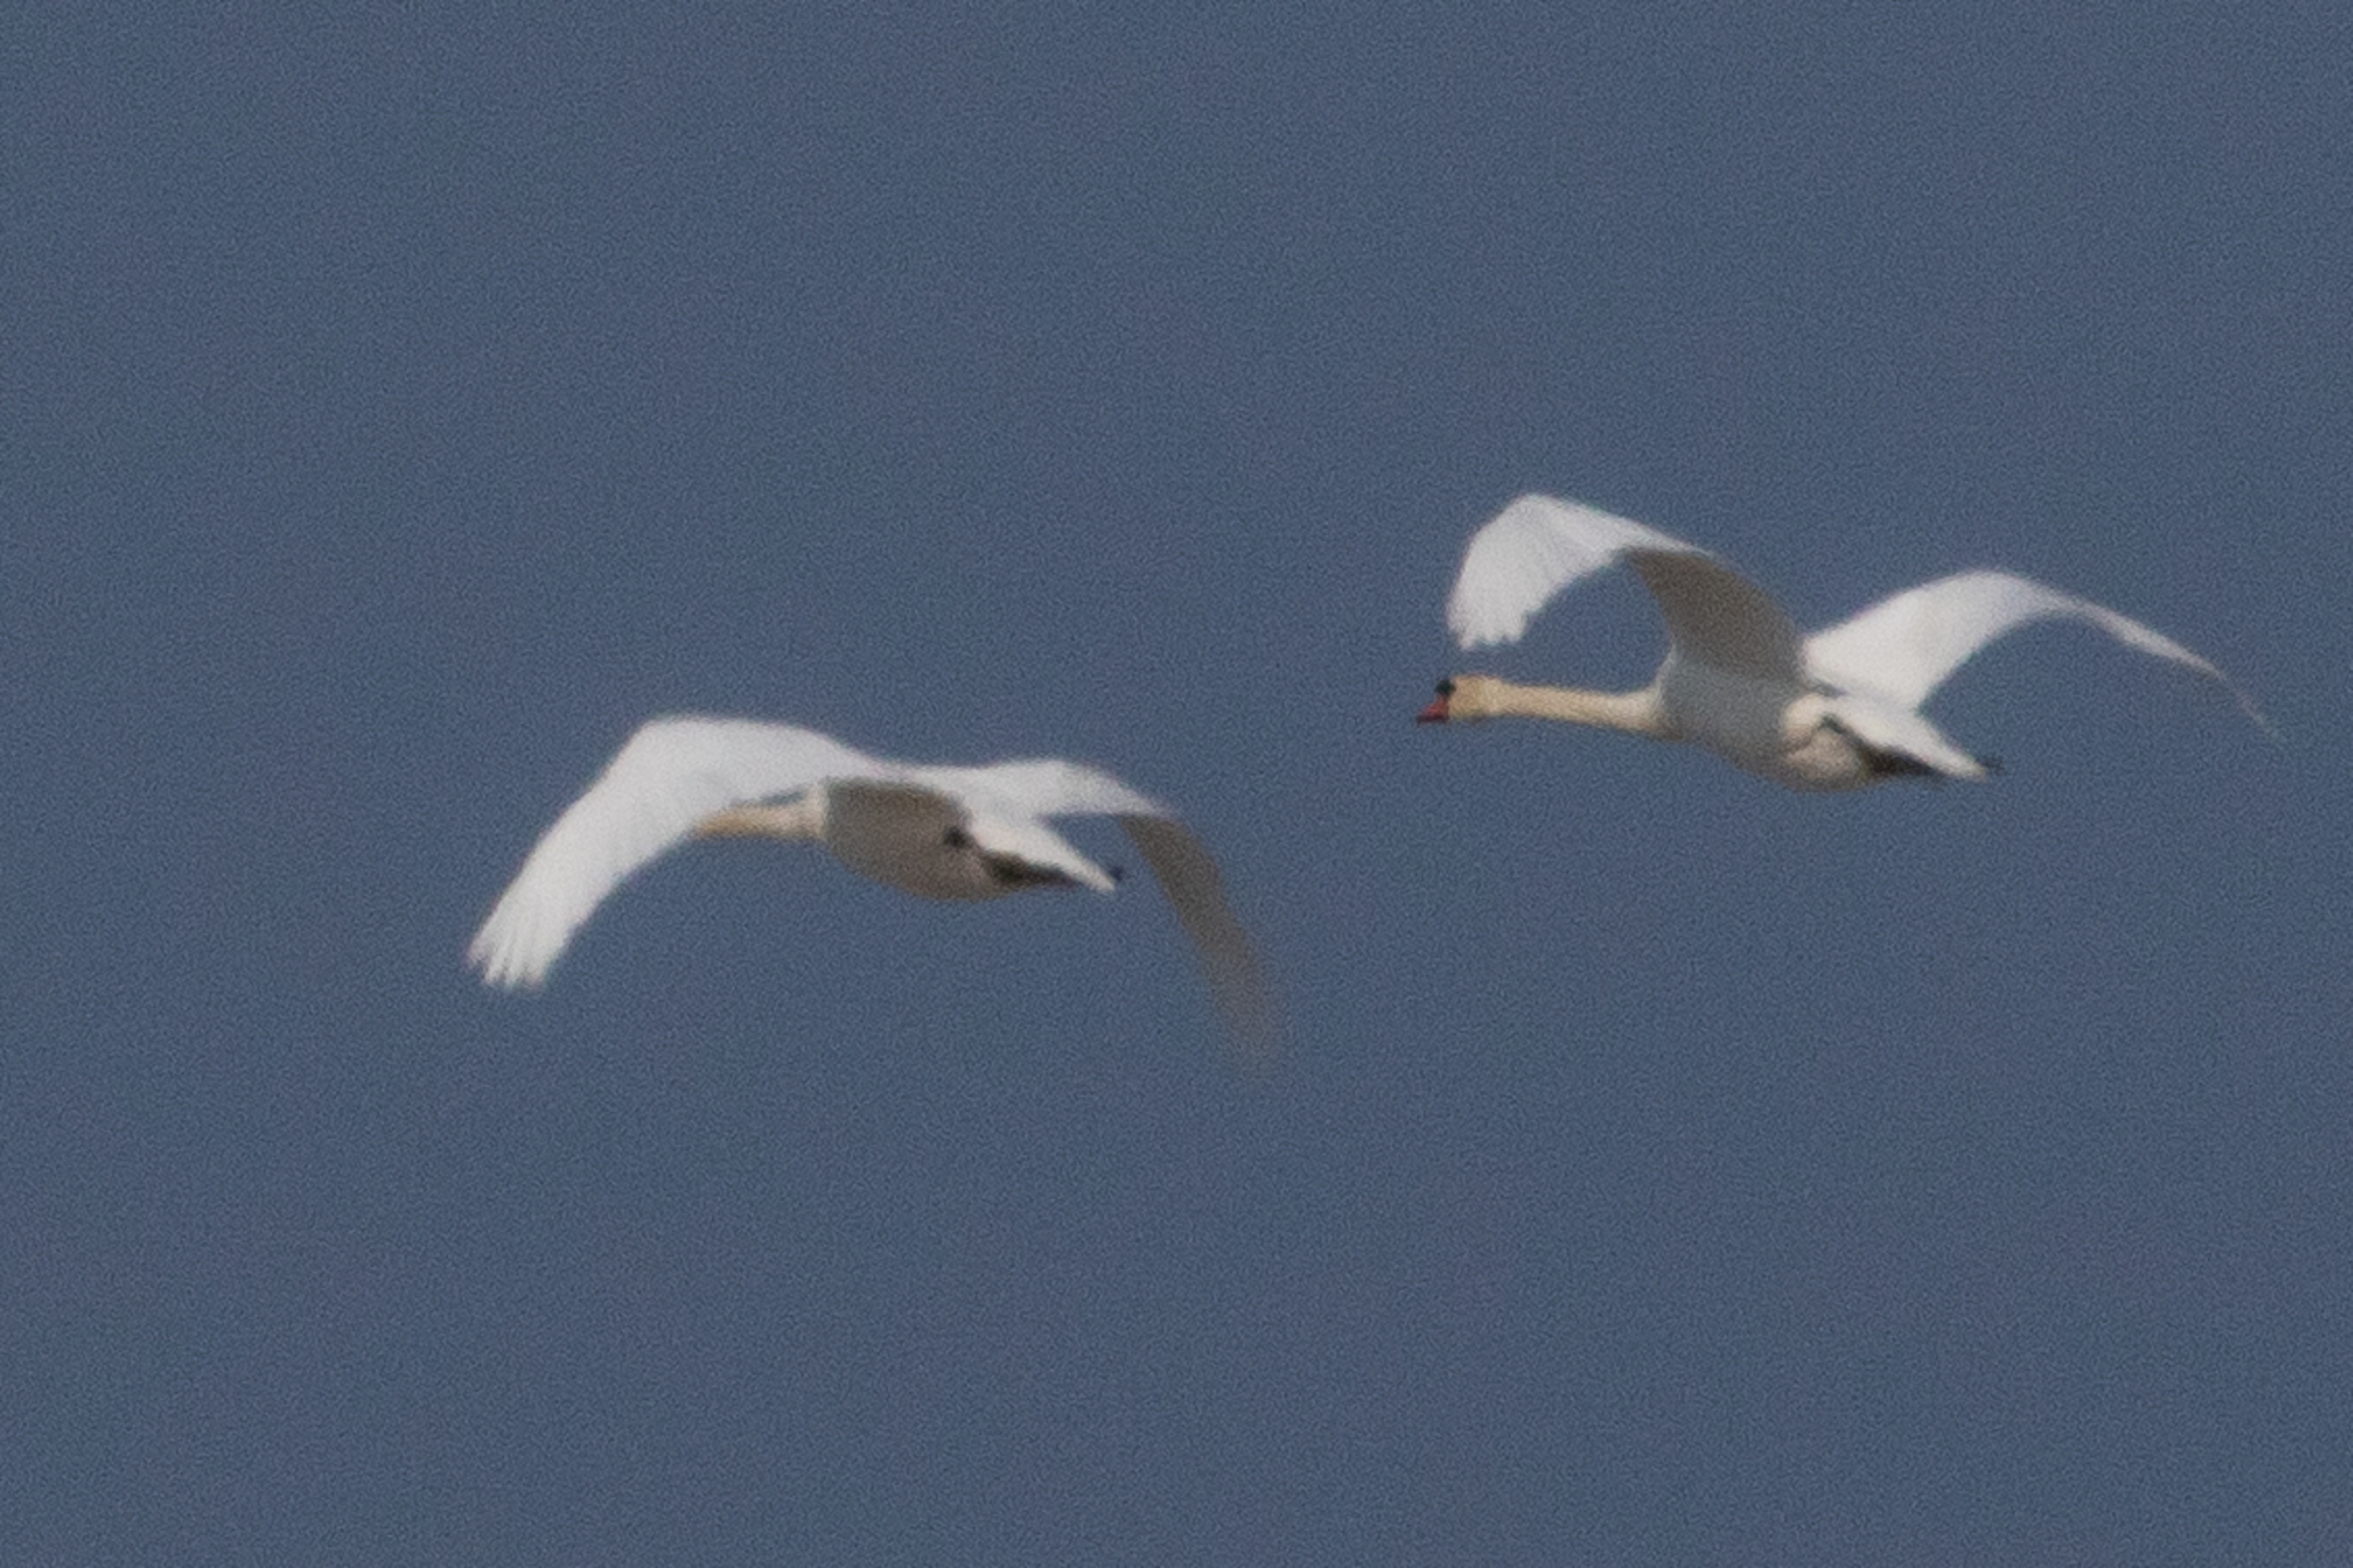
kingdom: Animalia
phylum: Chordata
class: Aves
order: Anseriformes
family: Anatidae
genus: Cygnus
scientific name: Cygnus olor
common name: Knopsvane
